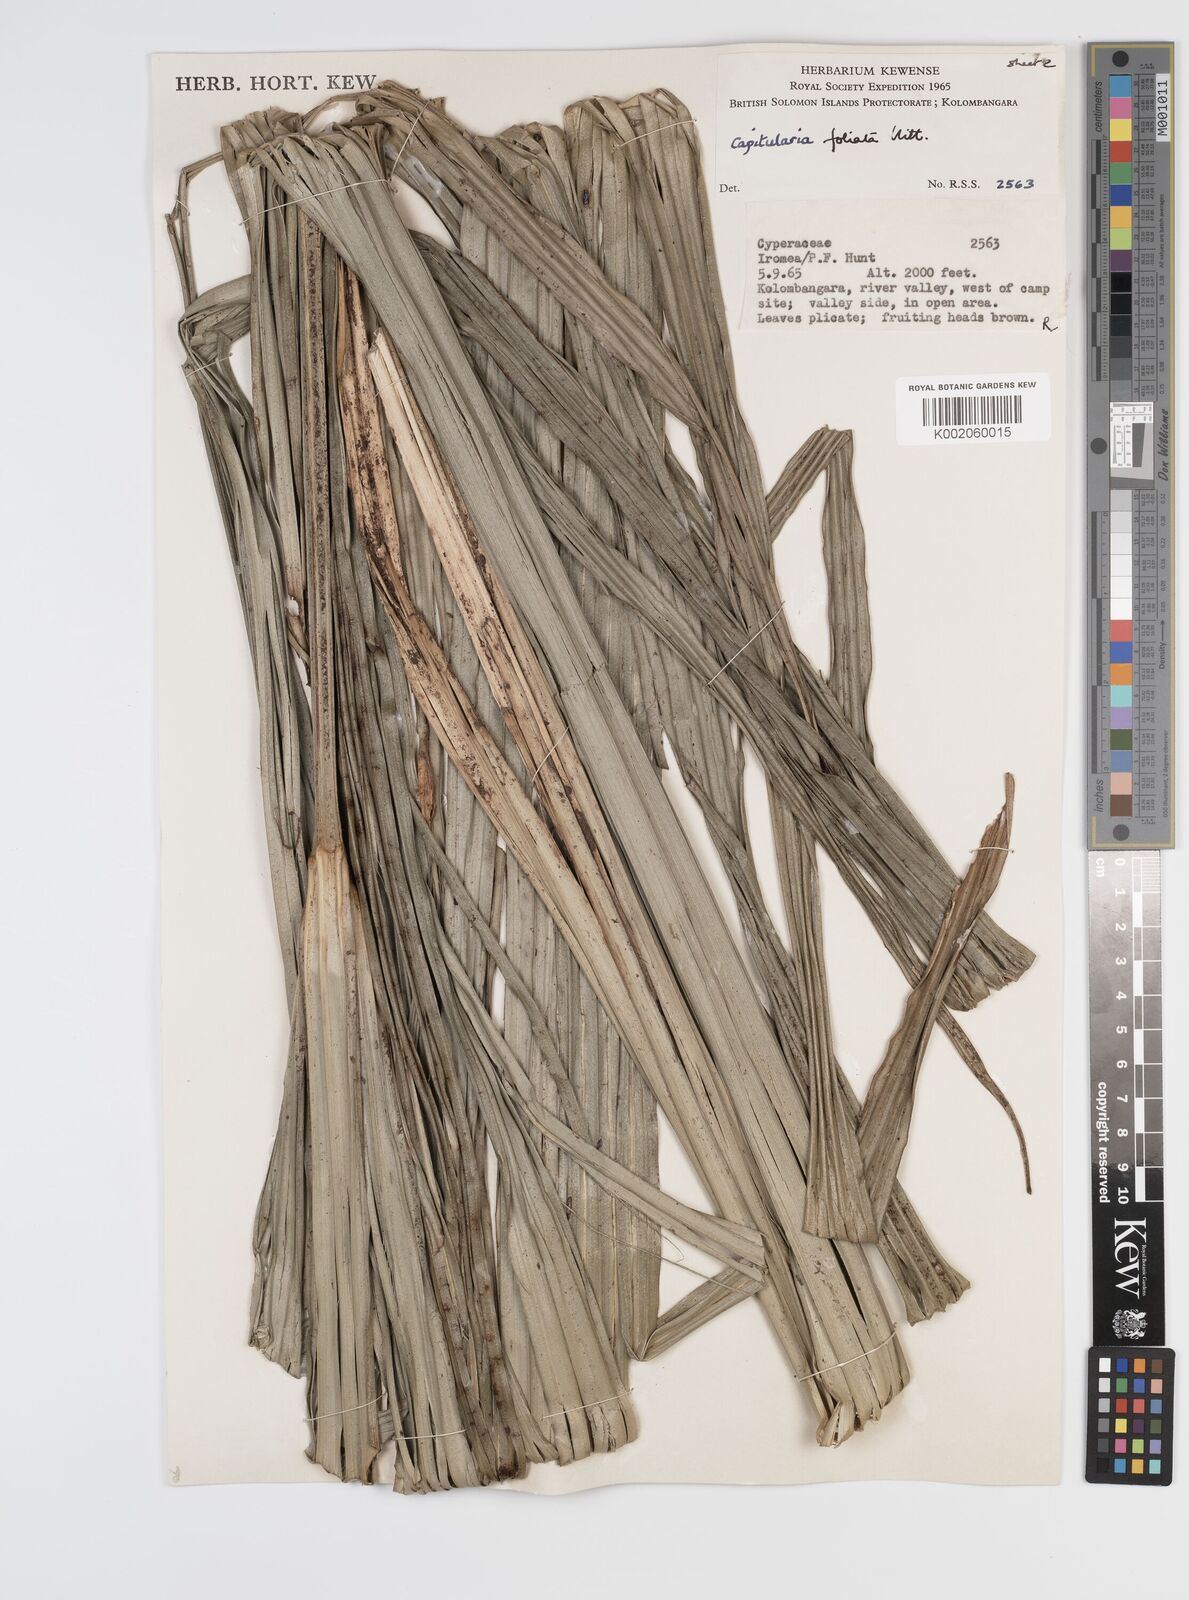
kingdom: Plantae
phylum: Tracheophyta
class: Liliopsida
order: Poales
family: Cyperaceae
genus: Capitularina
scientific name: Capitularina
